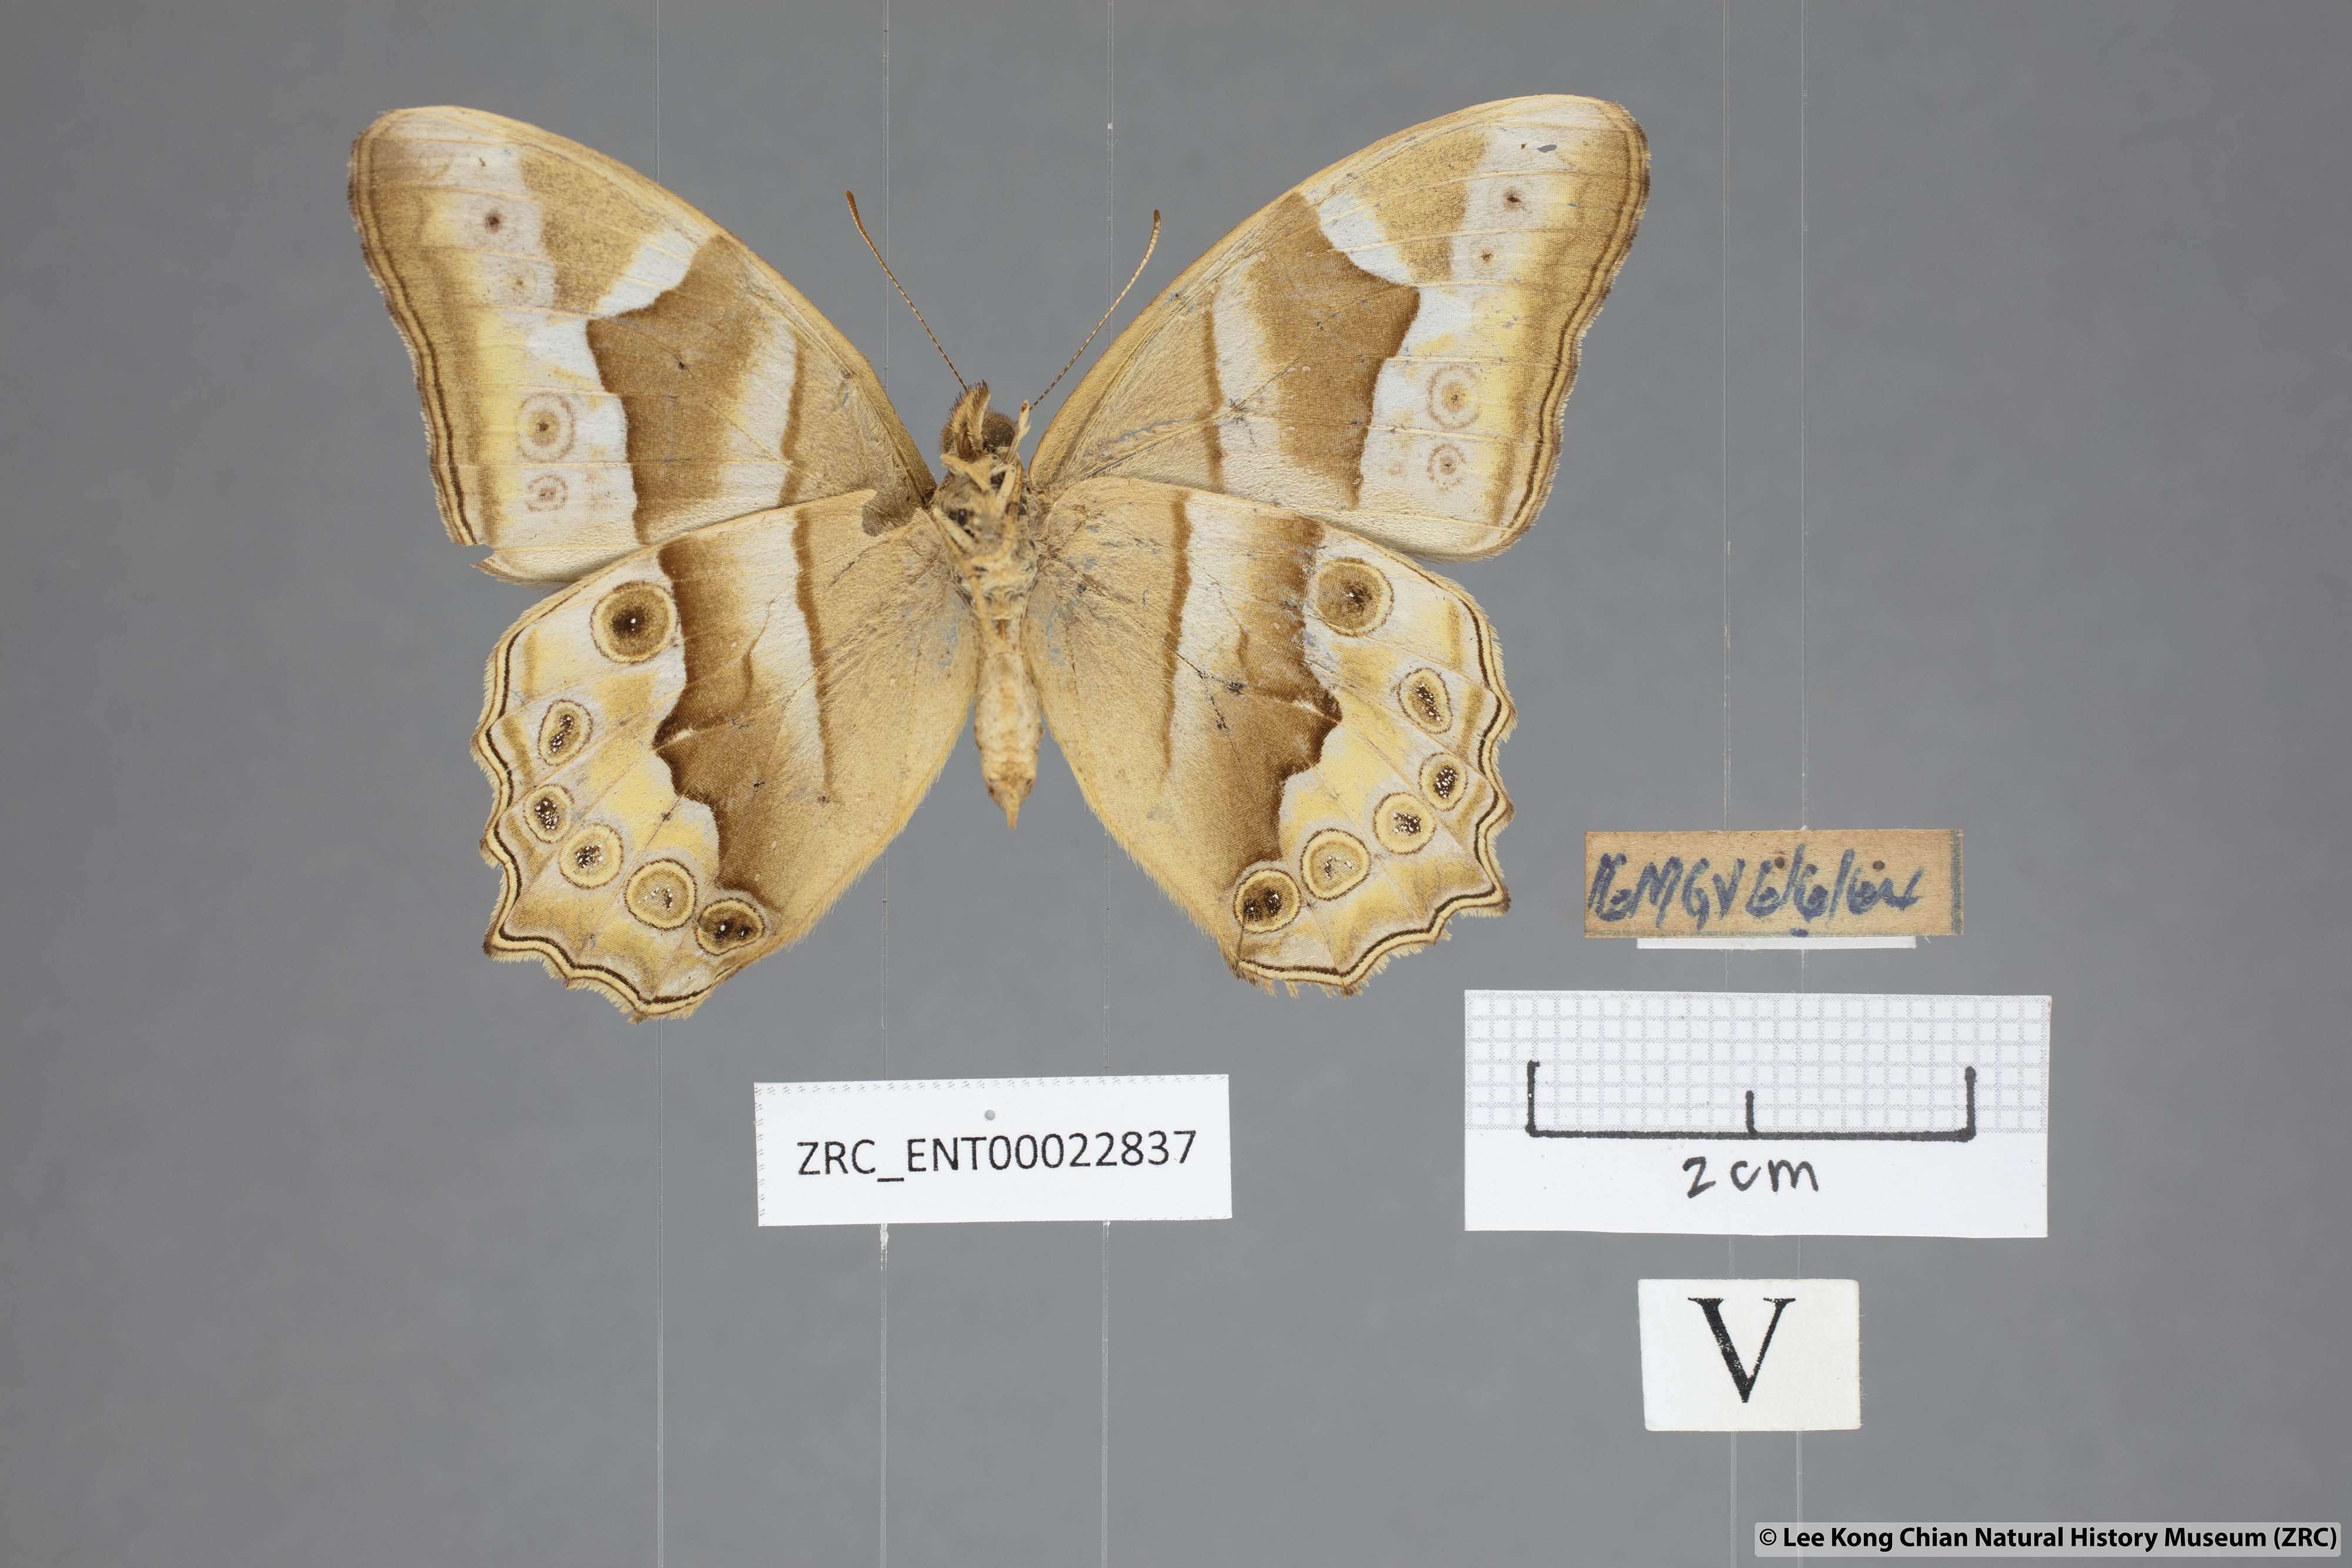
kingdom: Animalia
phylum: Arthropoda
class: Insecta
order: Lepidoptera
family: Nymphalidae
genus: Lethe
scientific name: Lethe mekara
